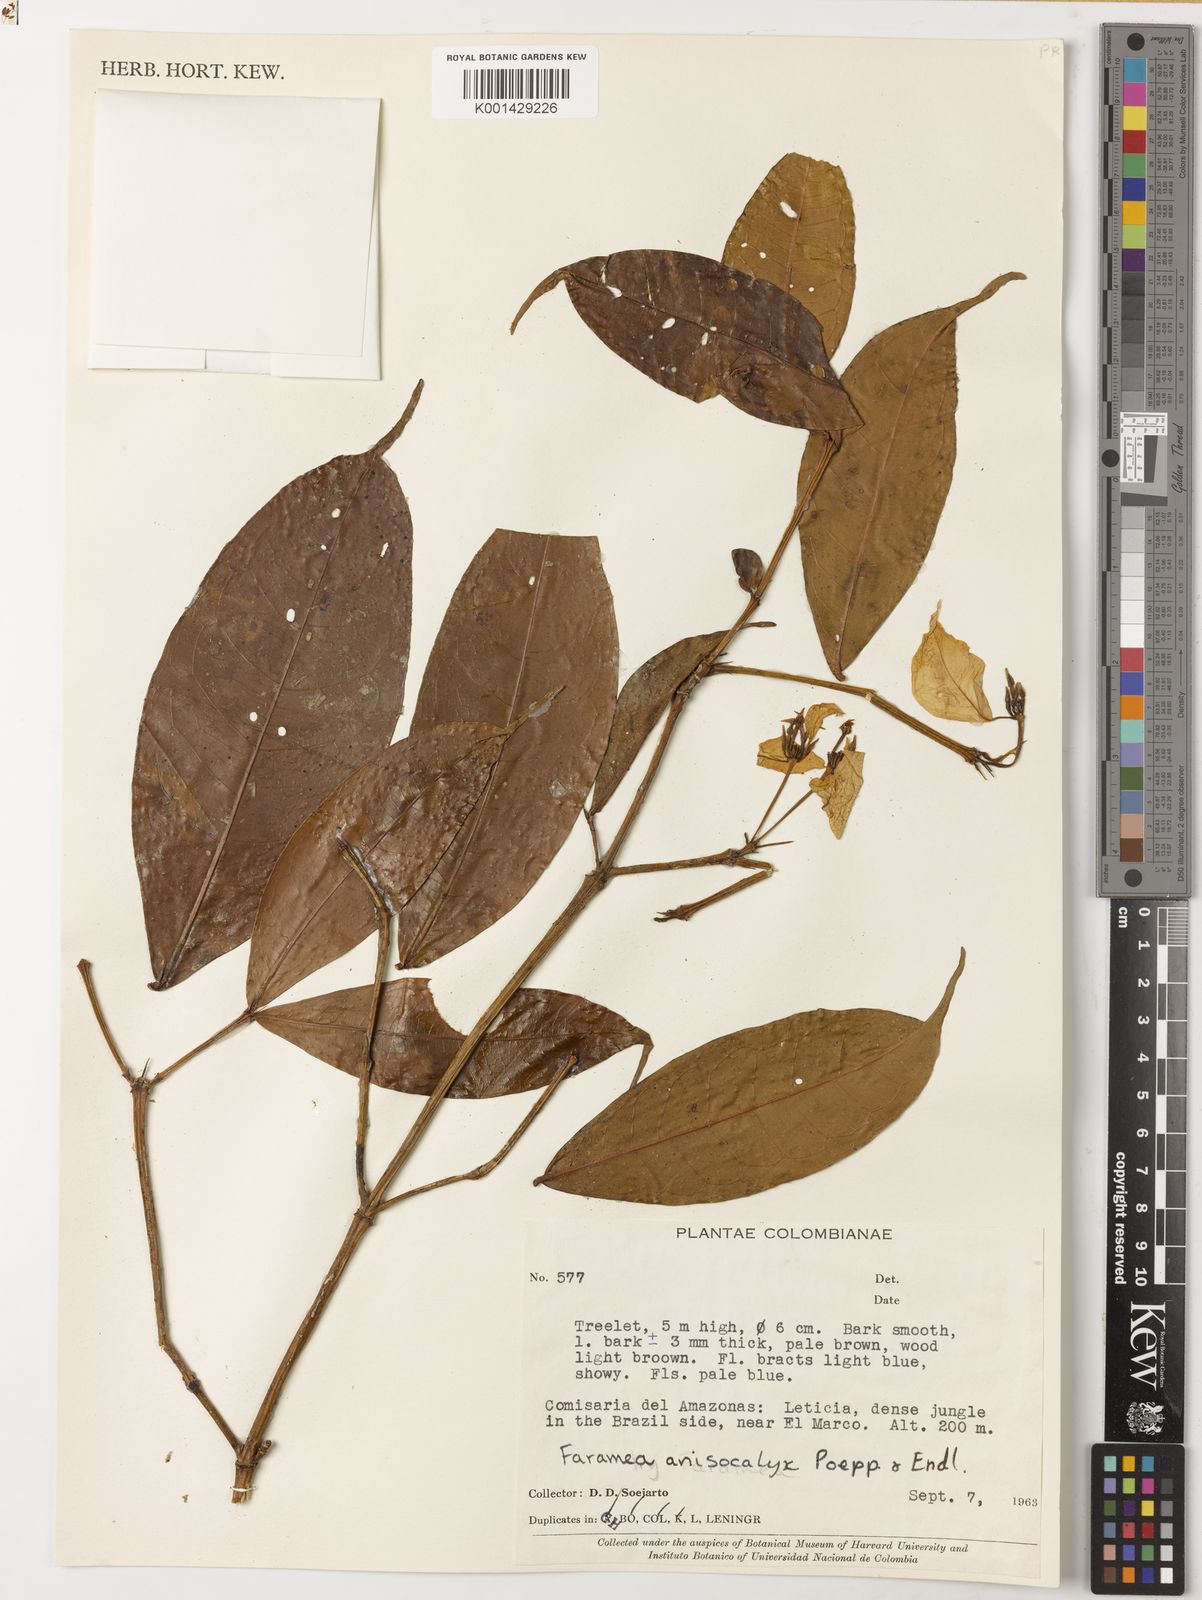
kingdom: Plantae
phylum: Tracheophyta
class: Magnoliopsida
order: Gentianales
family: Rubiaceae
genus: Faramea
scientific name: Faramea anisocalyx
